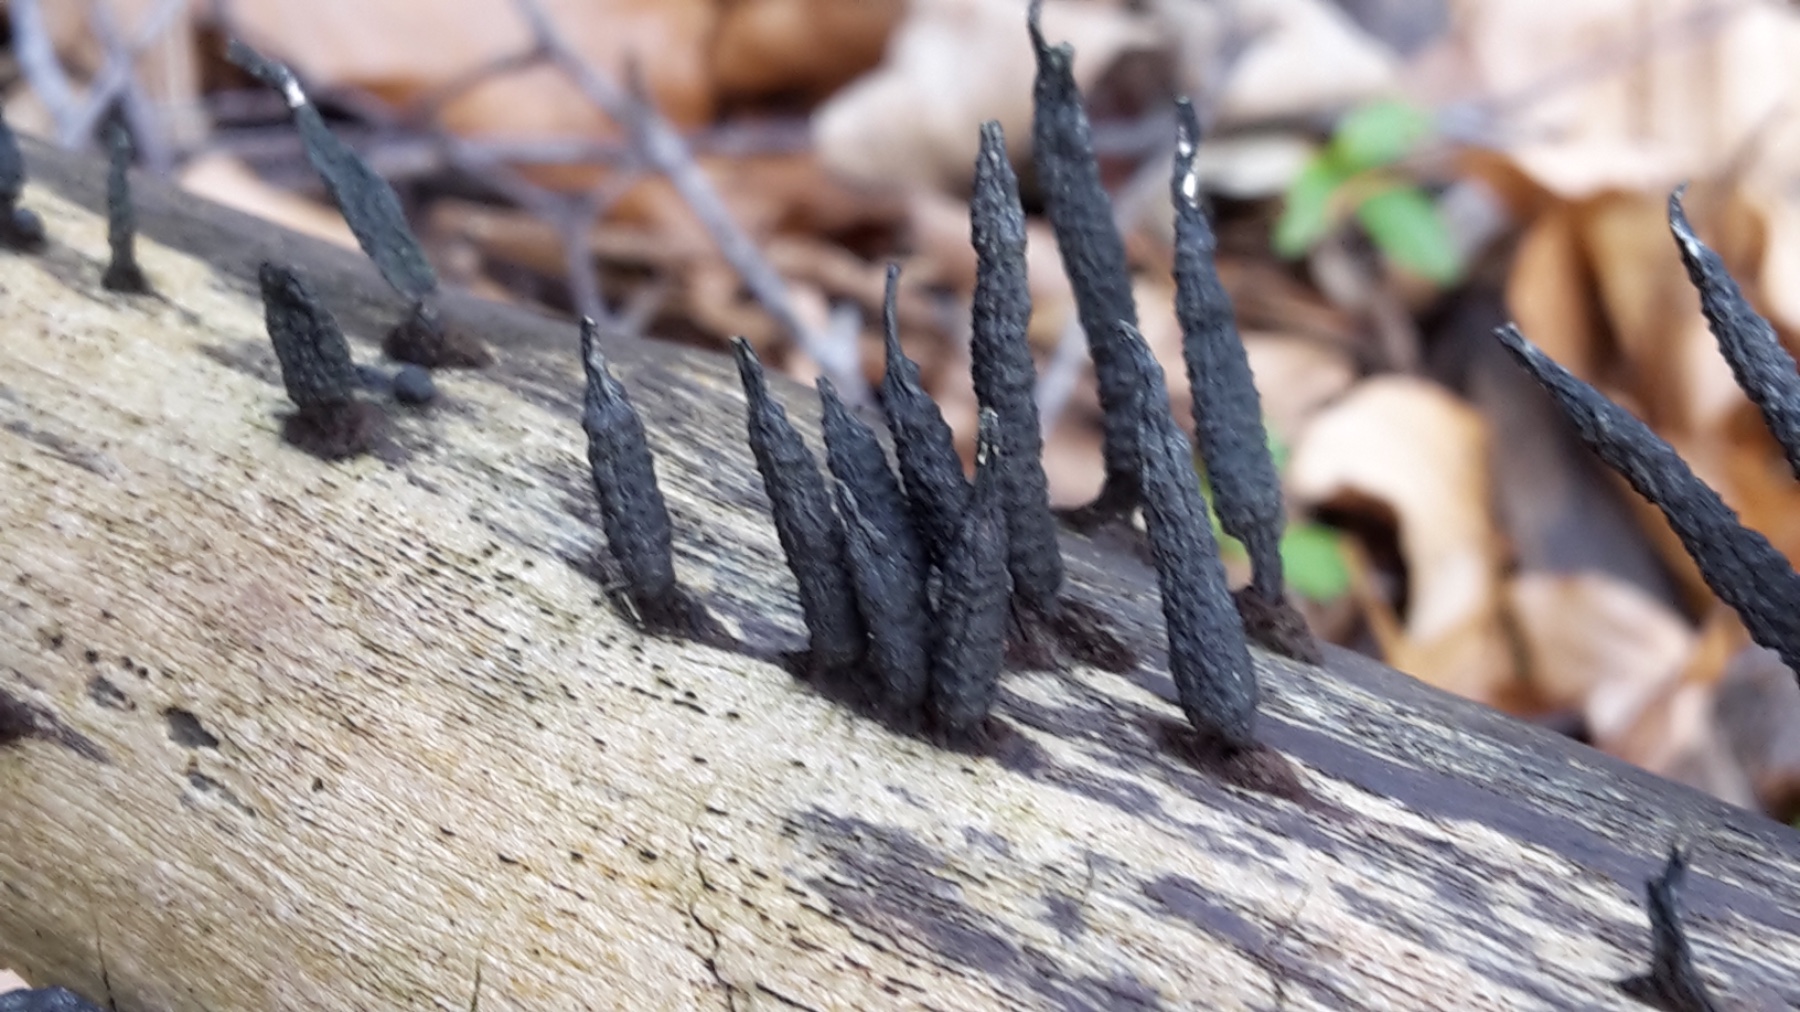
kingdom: Fungi
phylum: Ascomycota
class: Sordariomycetes
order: Xylariales
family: Xylariaceae
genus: Xylaria
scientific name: Xylaria hypoxylon
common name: grenet stødsvamp
